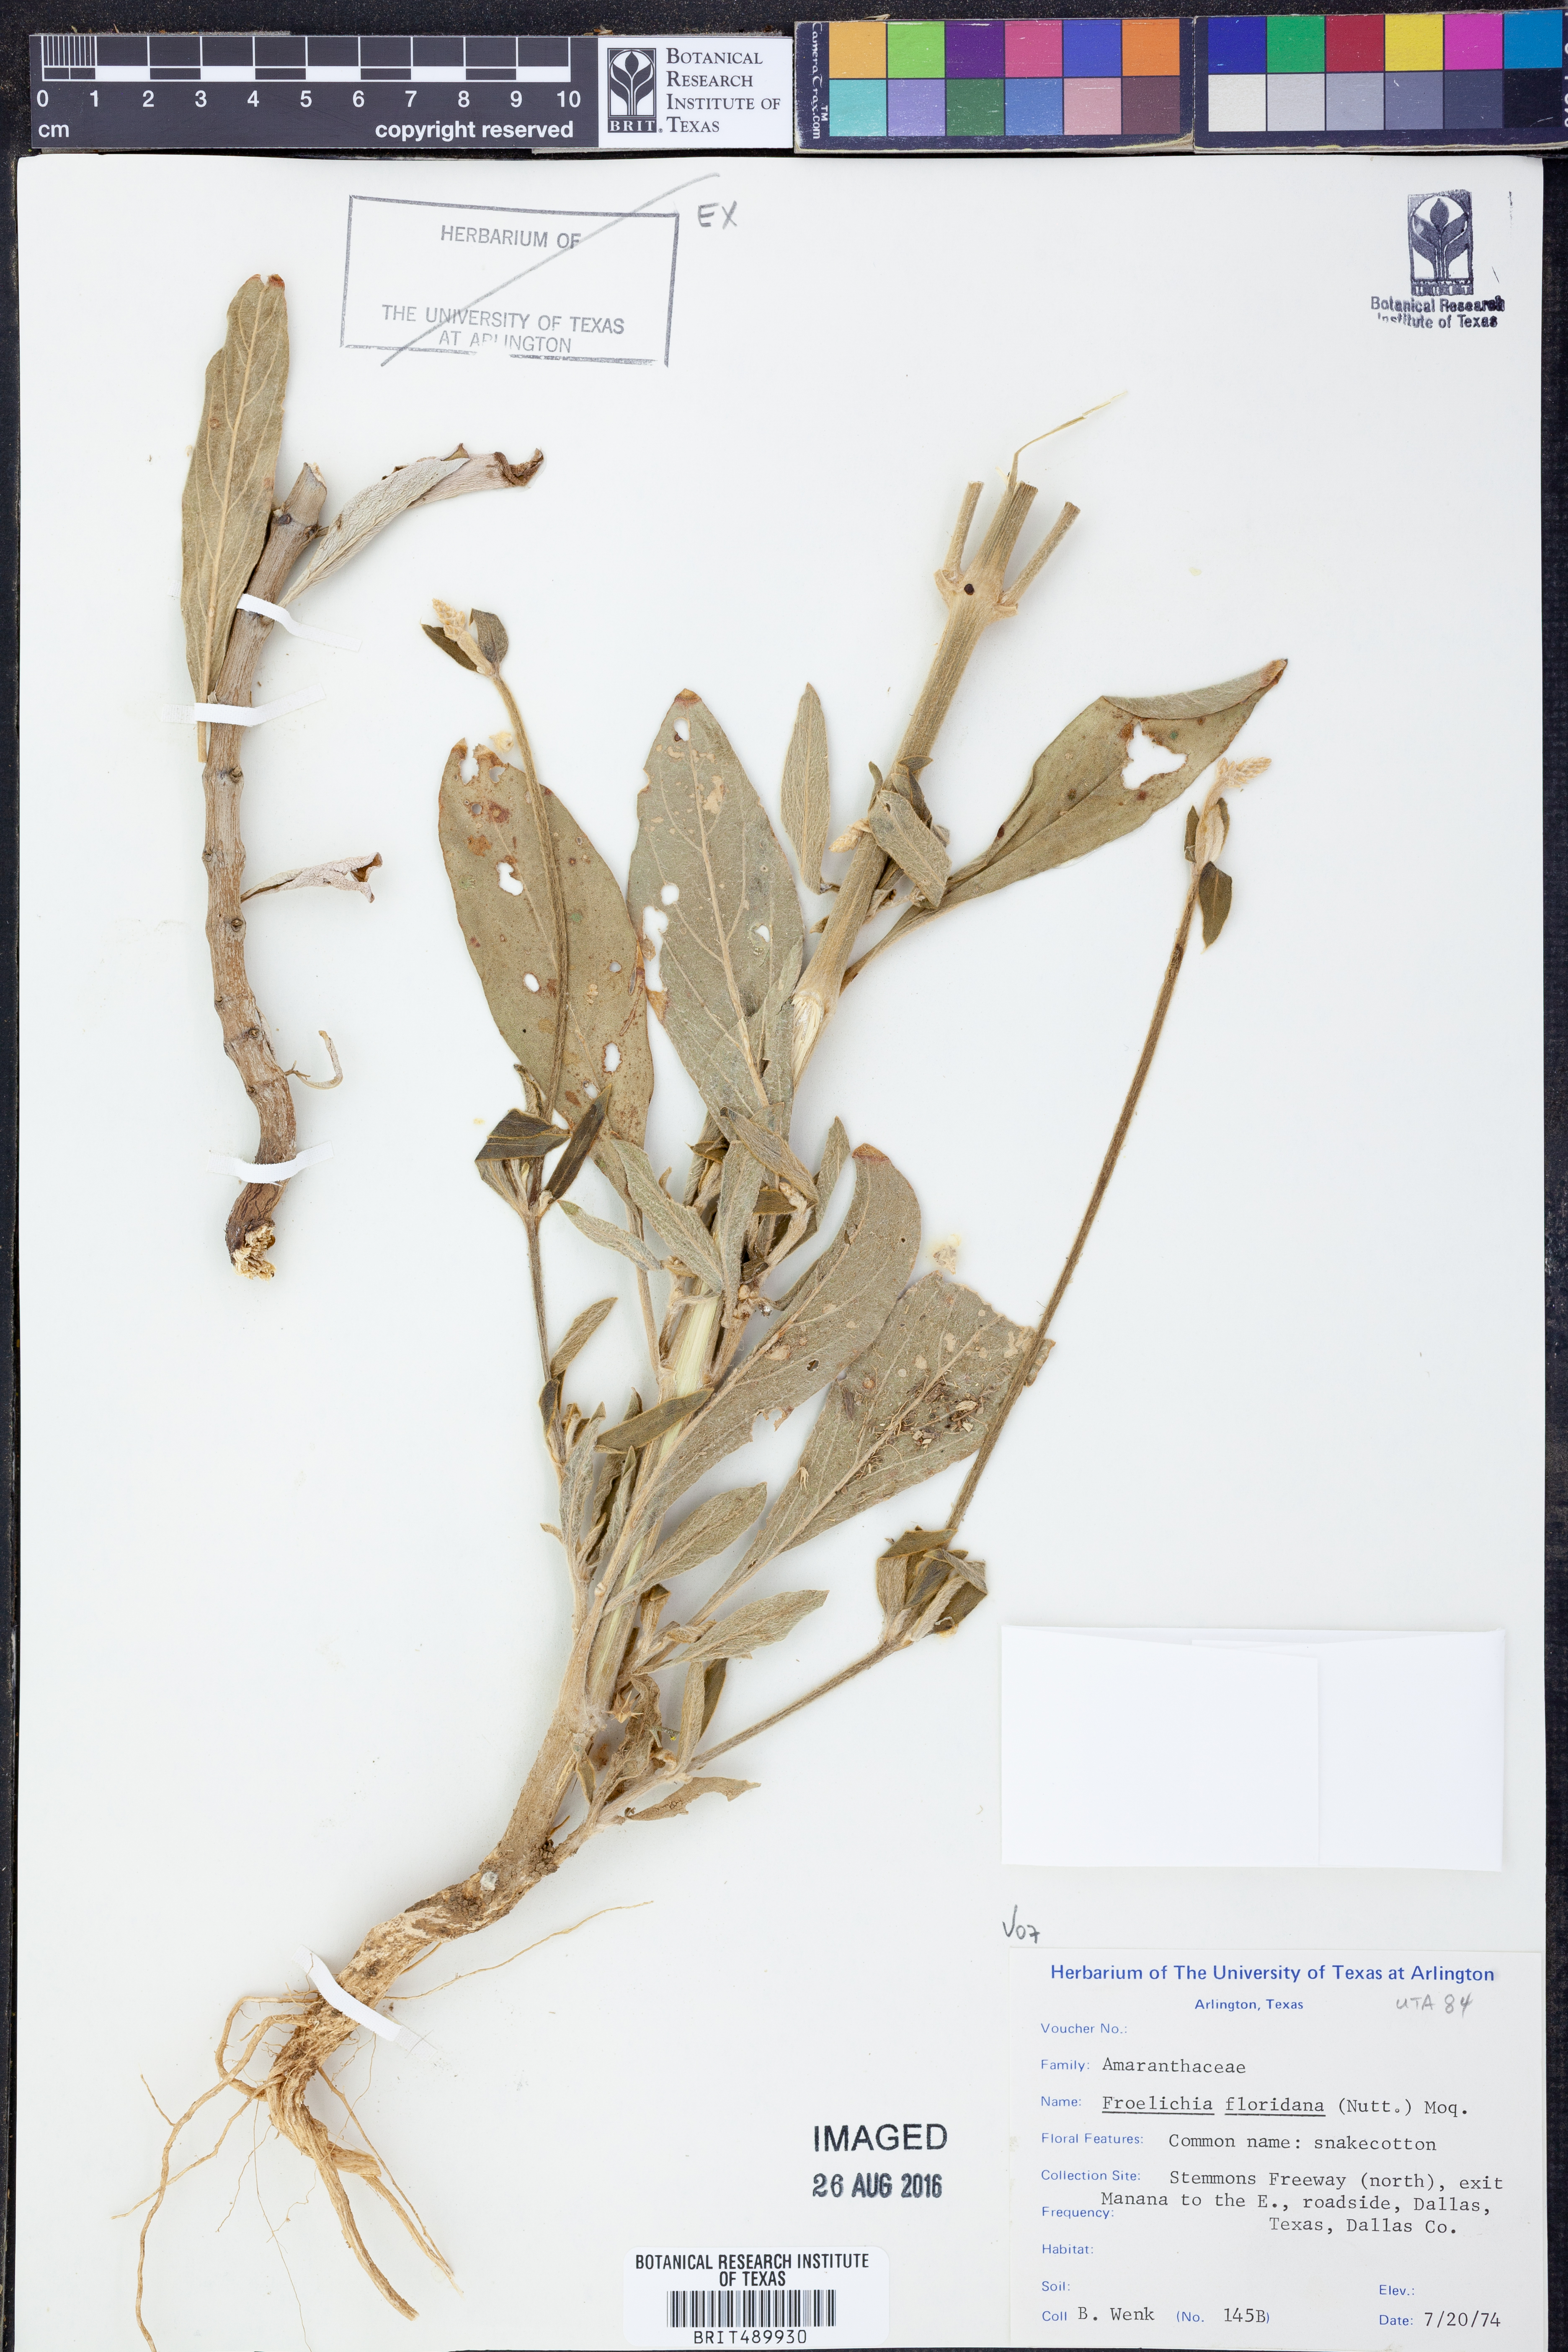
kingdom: Plantae
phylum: Tracheophyta
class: Magnoliopsida
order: Caryophyllales
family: Amaranthaceae
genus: Froelichia
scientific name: Froelichia floridana
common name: Florida snake-cotton
